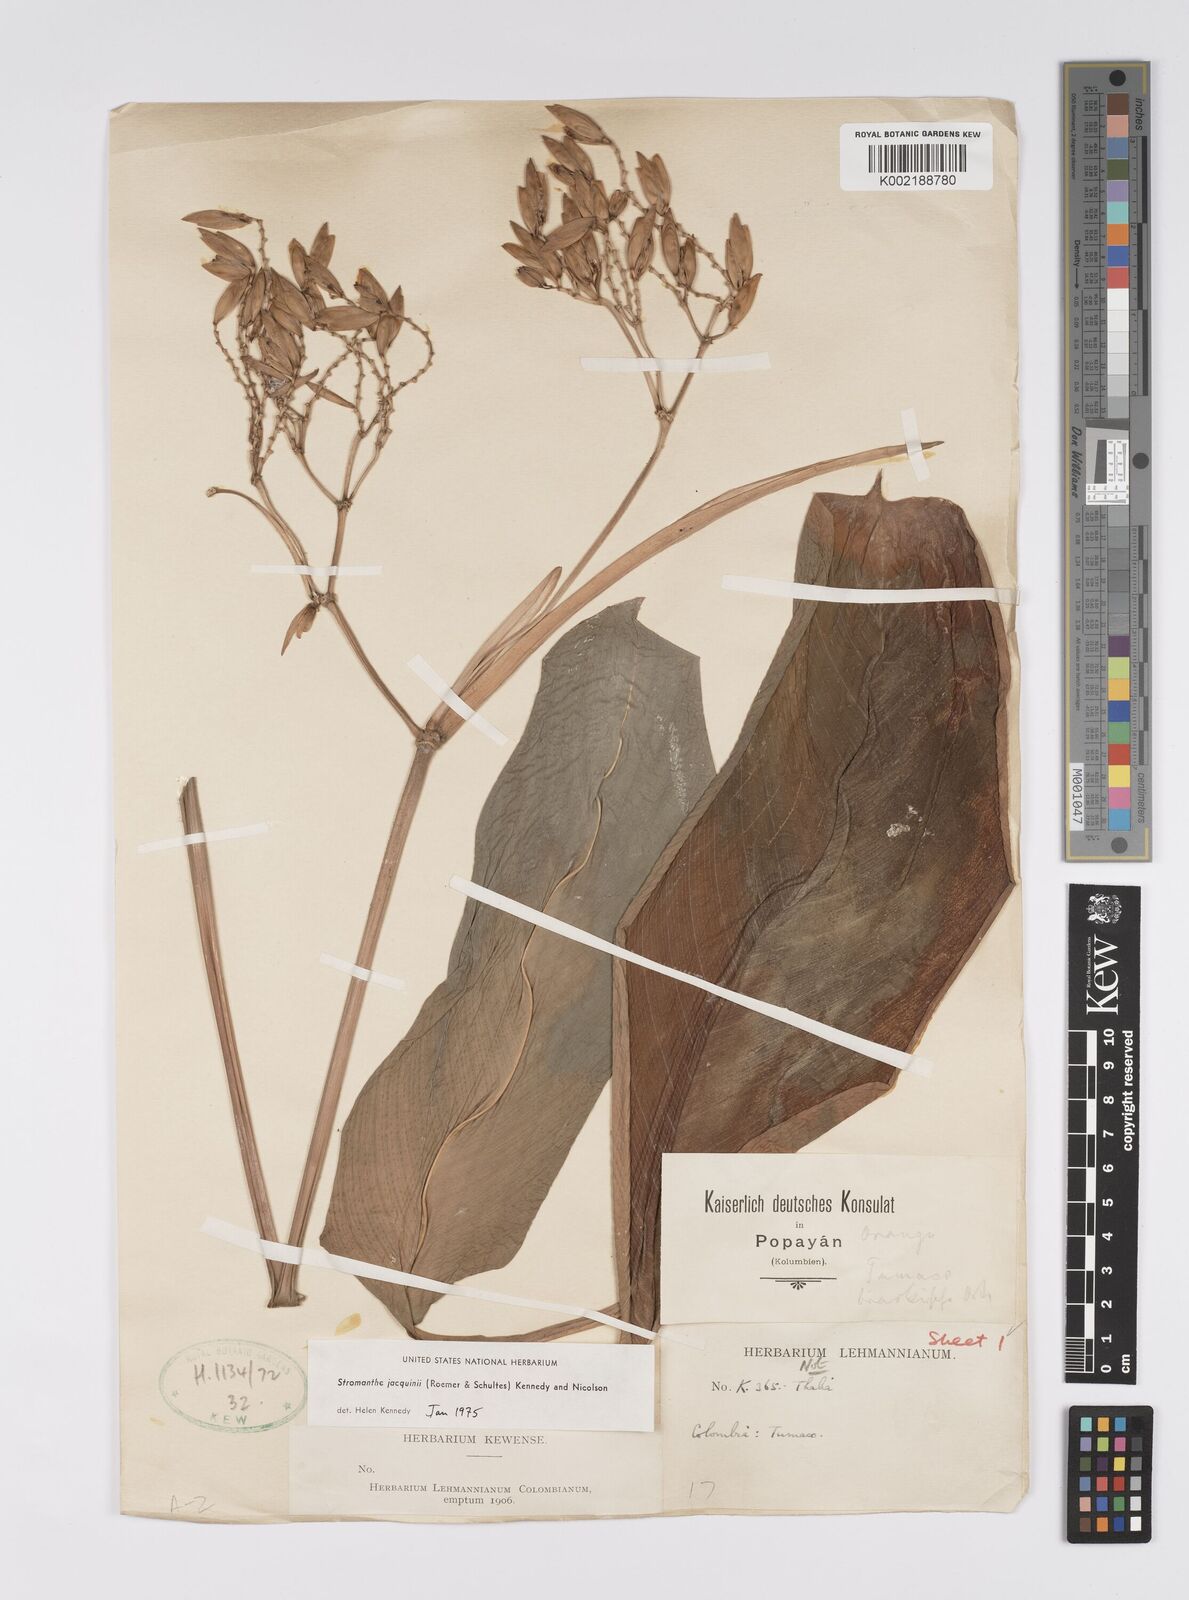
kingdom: Plantae
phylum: Tracheophyta
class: Liliopsida
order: Zingiberales
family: Marantaceae
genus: Stromanthe
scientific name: Stromanthe jacquinii
